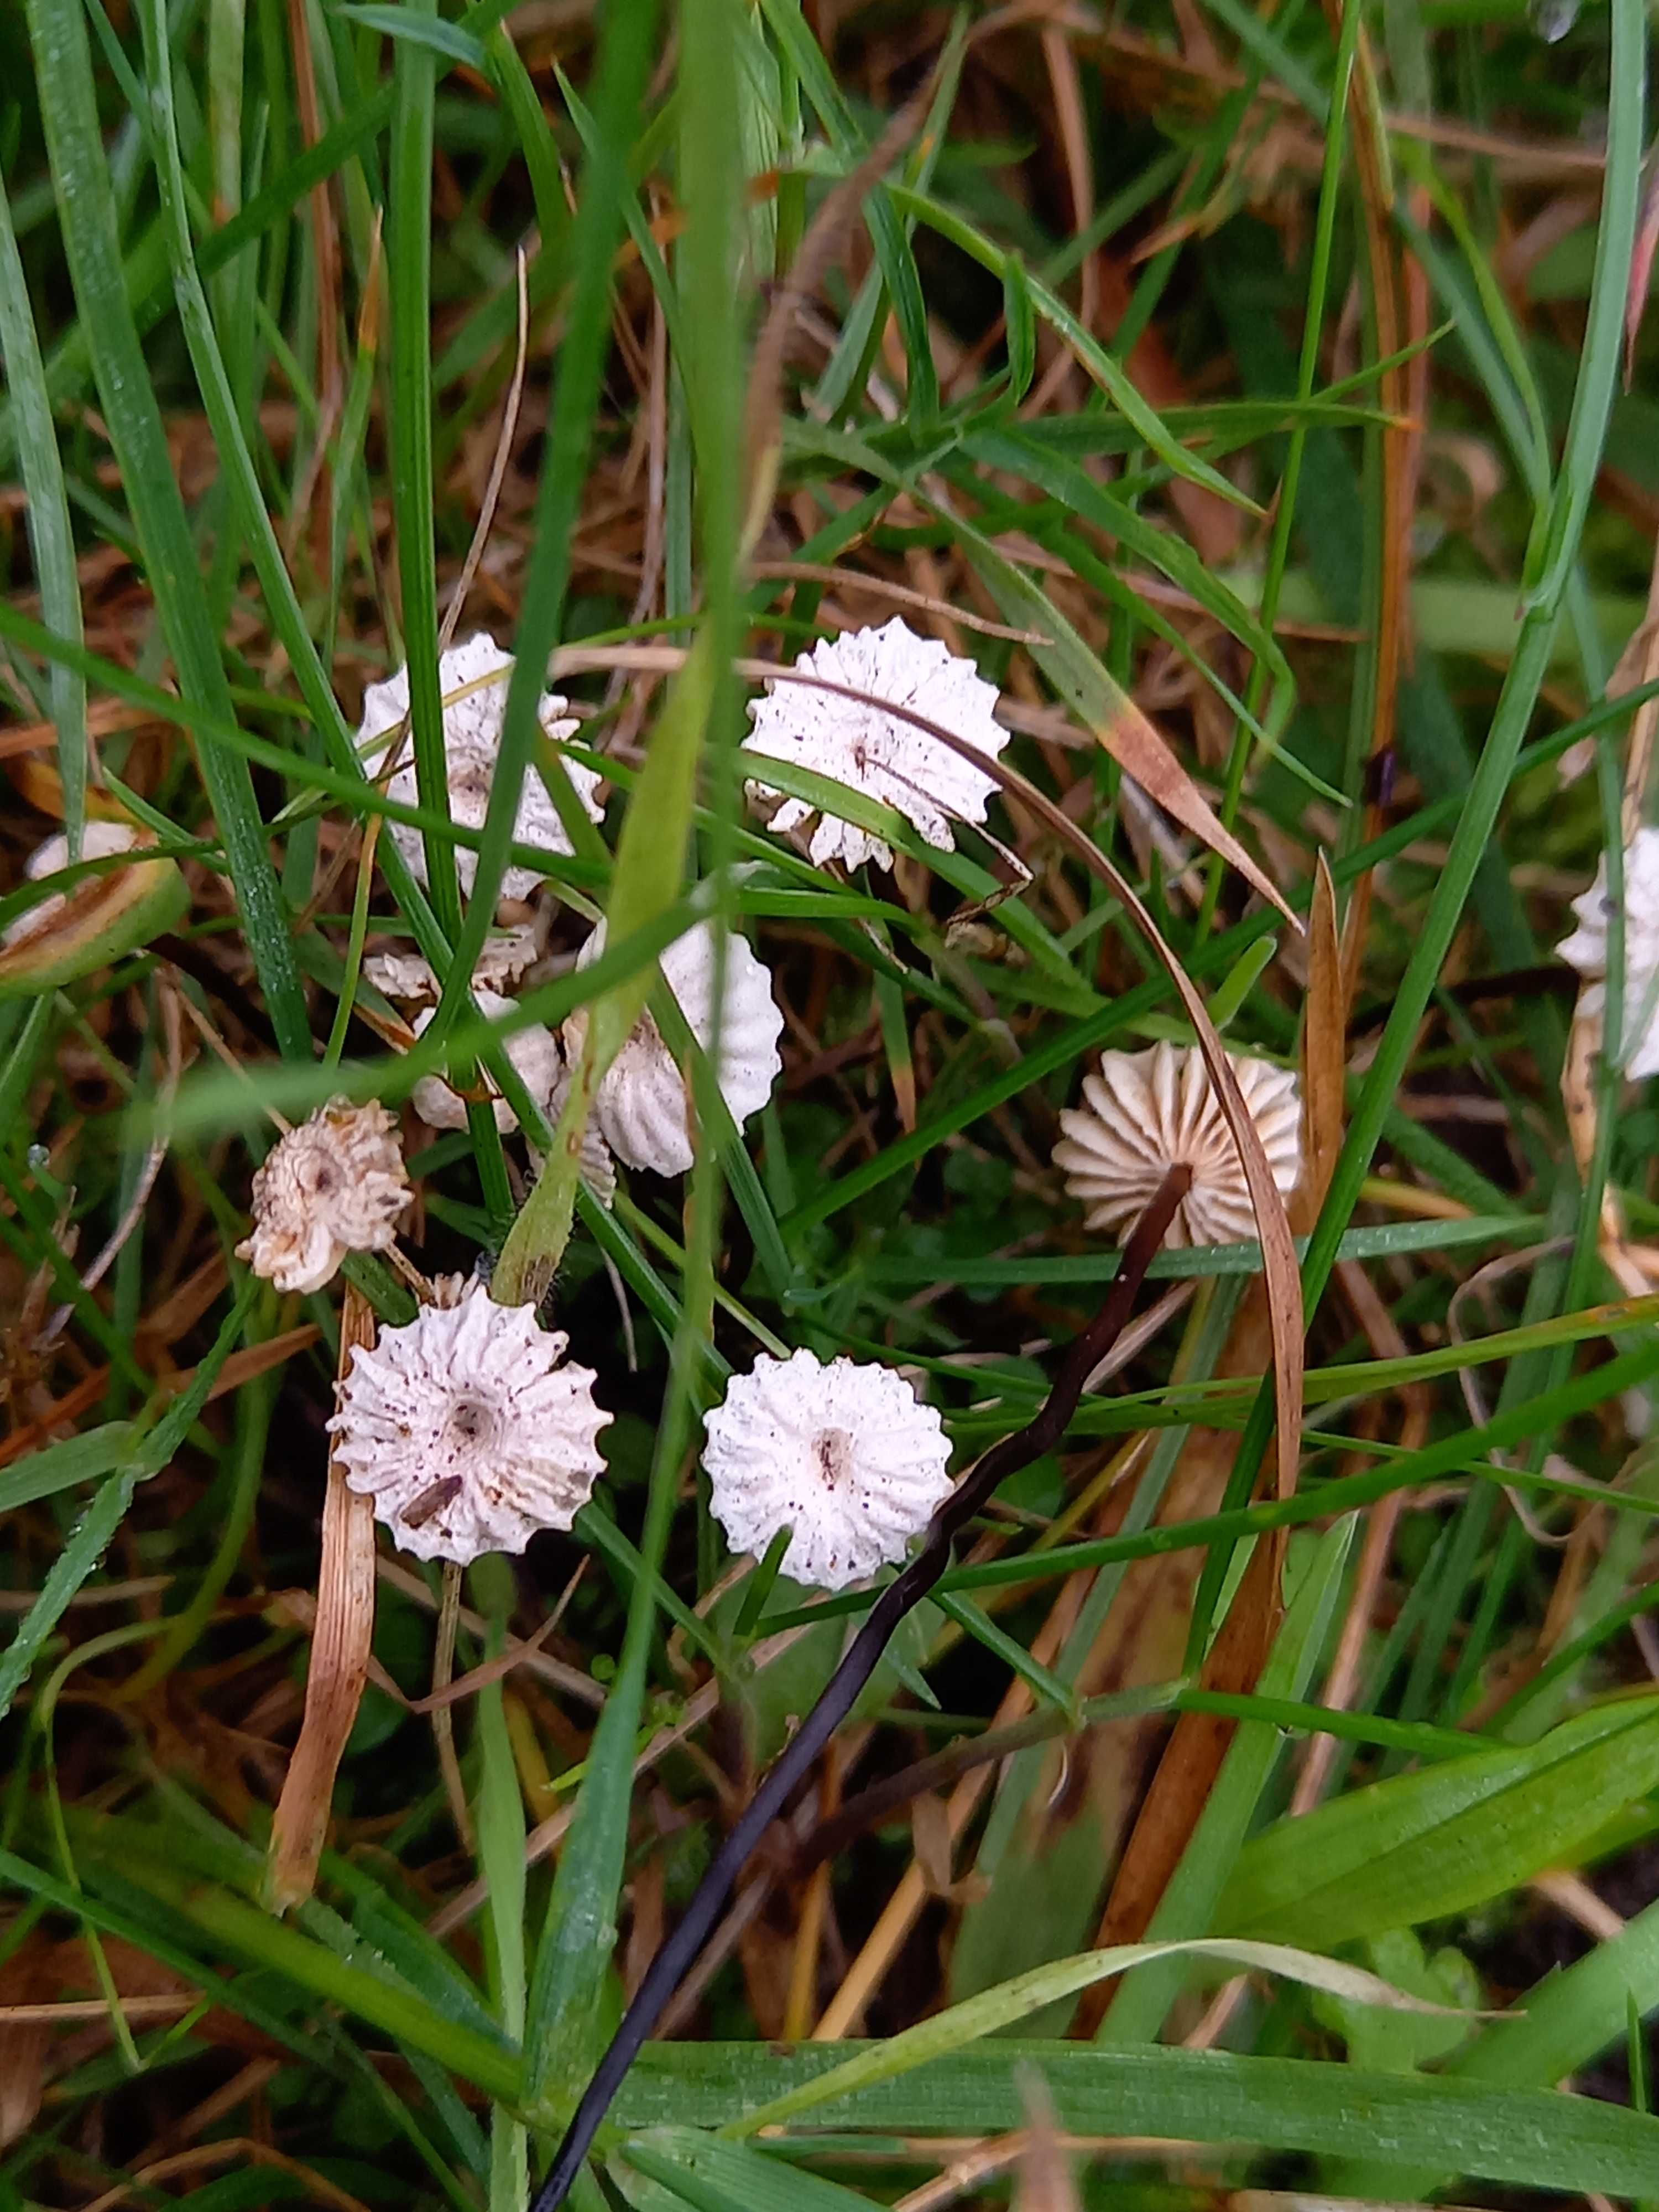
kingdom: Fungi
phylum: Basidiomycota
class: Agaricomycetes
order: Agaricales
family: Marasmiaceae
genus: Marasmius
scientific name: Marasmius rotula
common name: hjul-bruskhat
